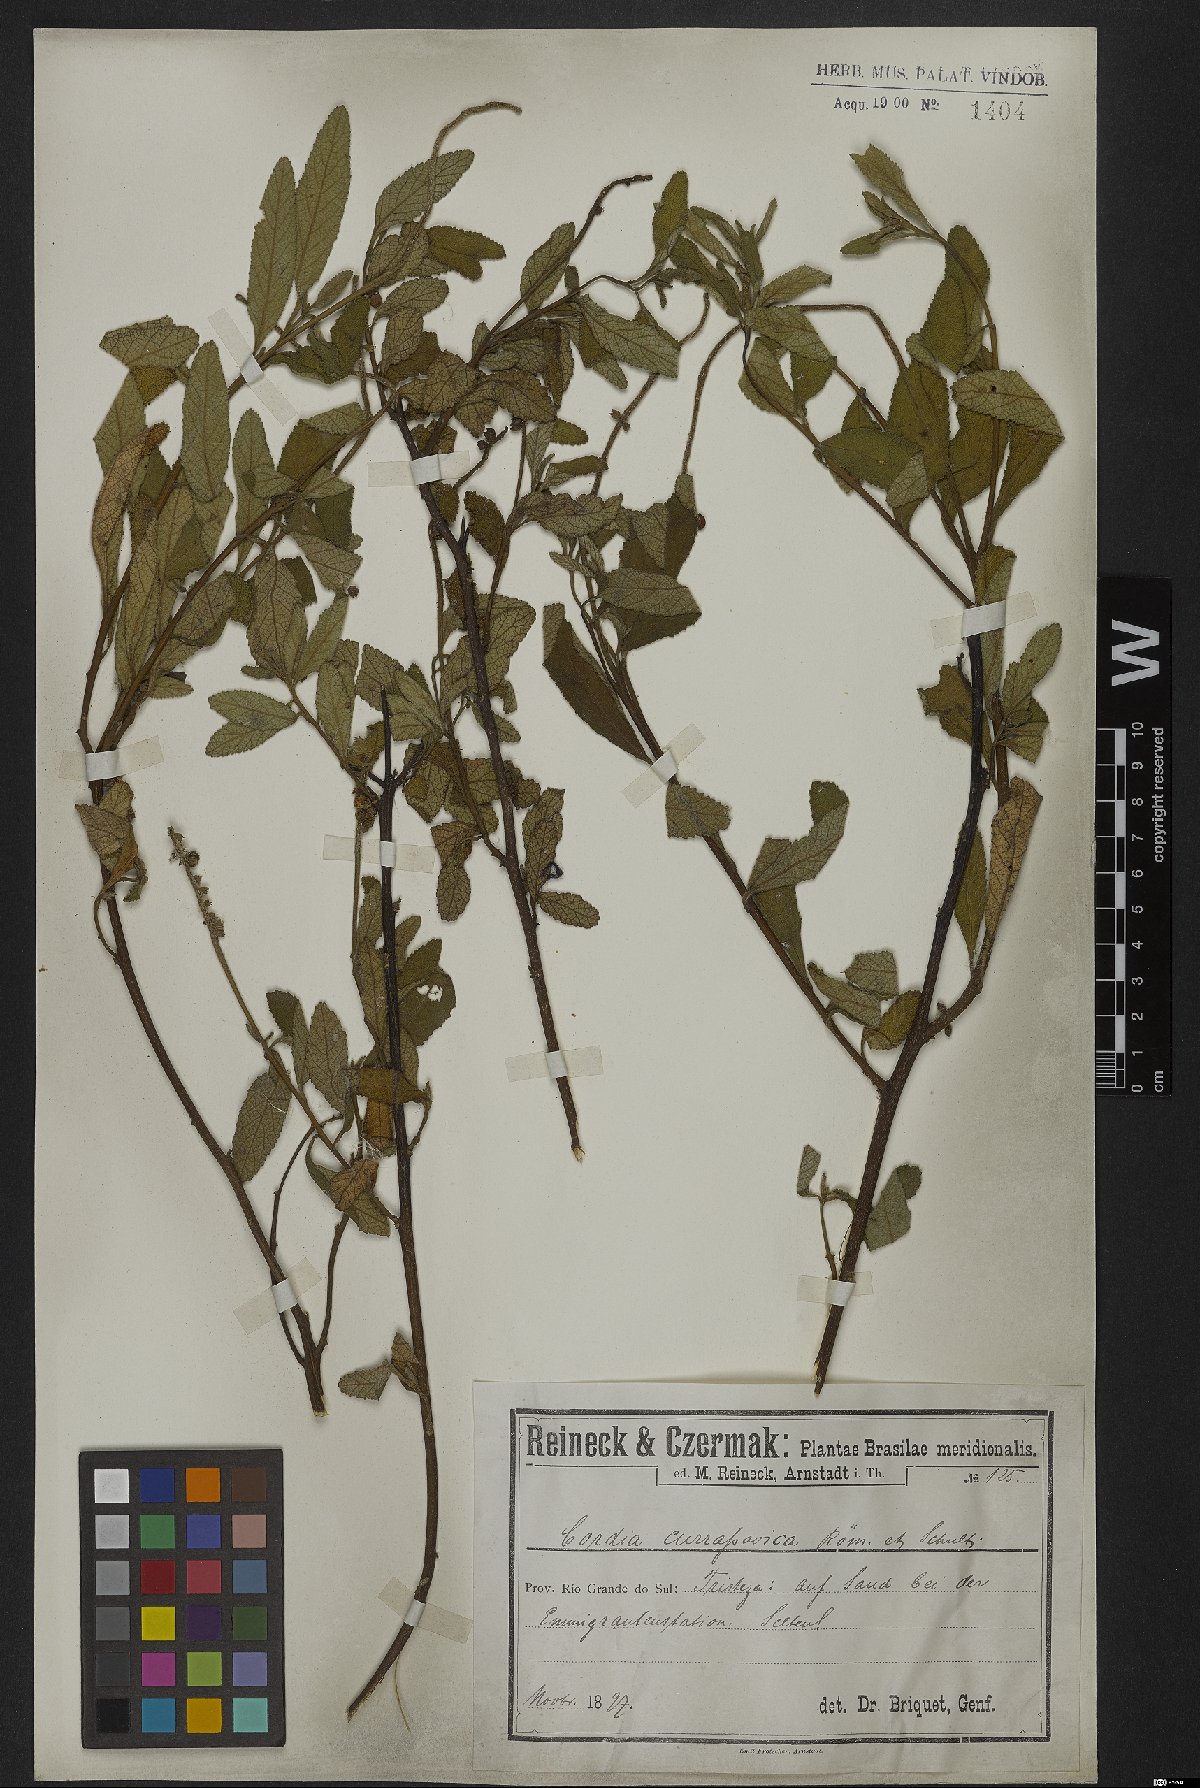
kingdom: Plantae
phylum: Tracheophyta
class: Magnoliopsida
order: Boraginales
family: Cordiaceae
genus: Varronia
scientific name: Varronia curassavica
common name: Black sage
